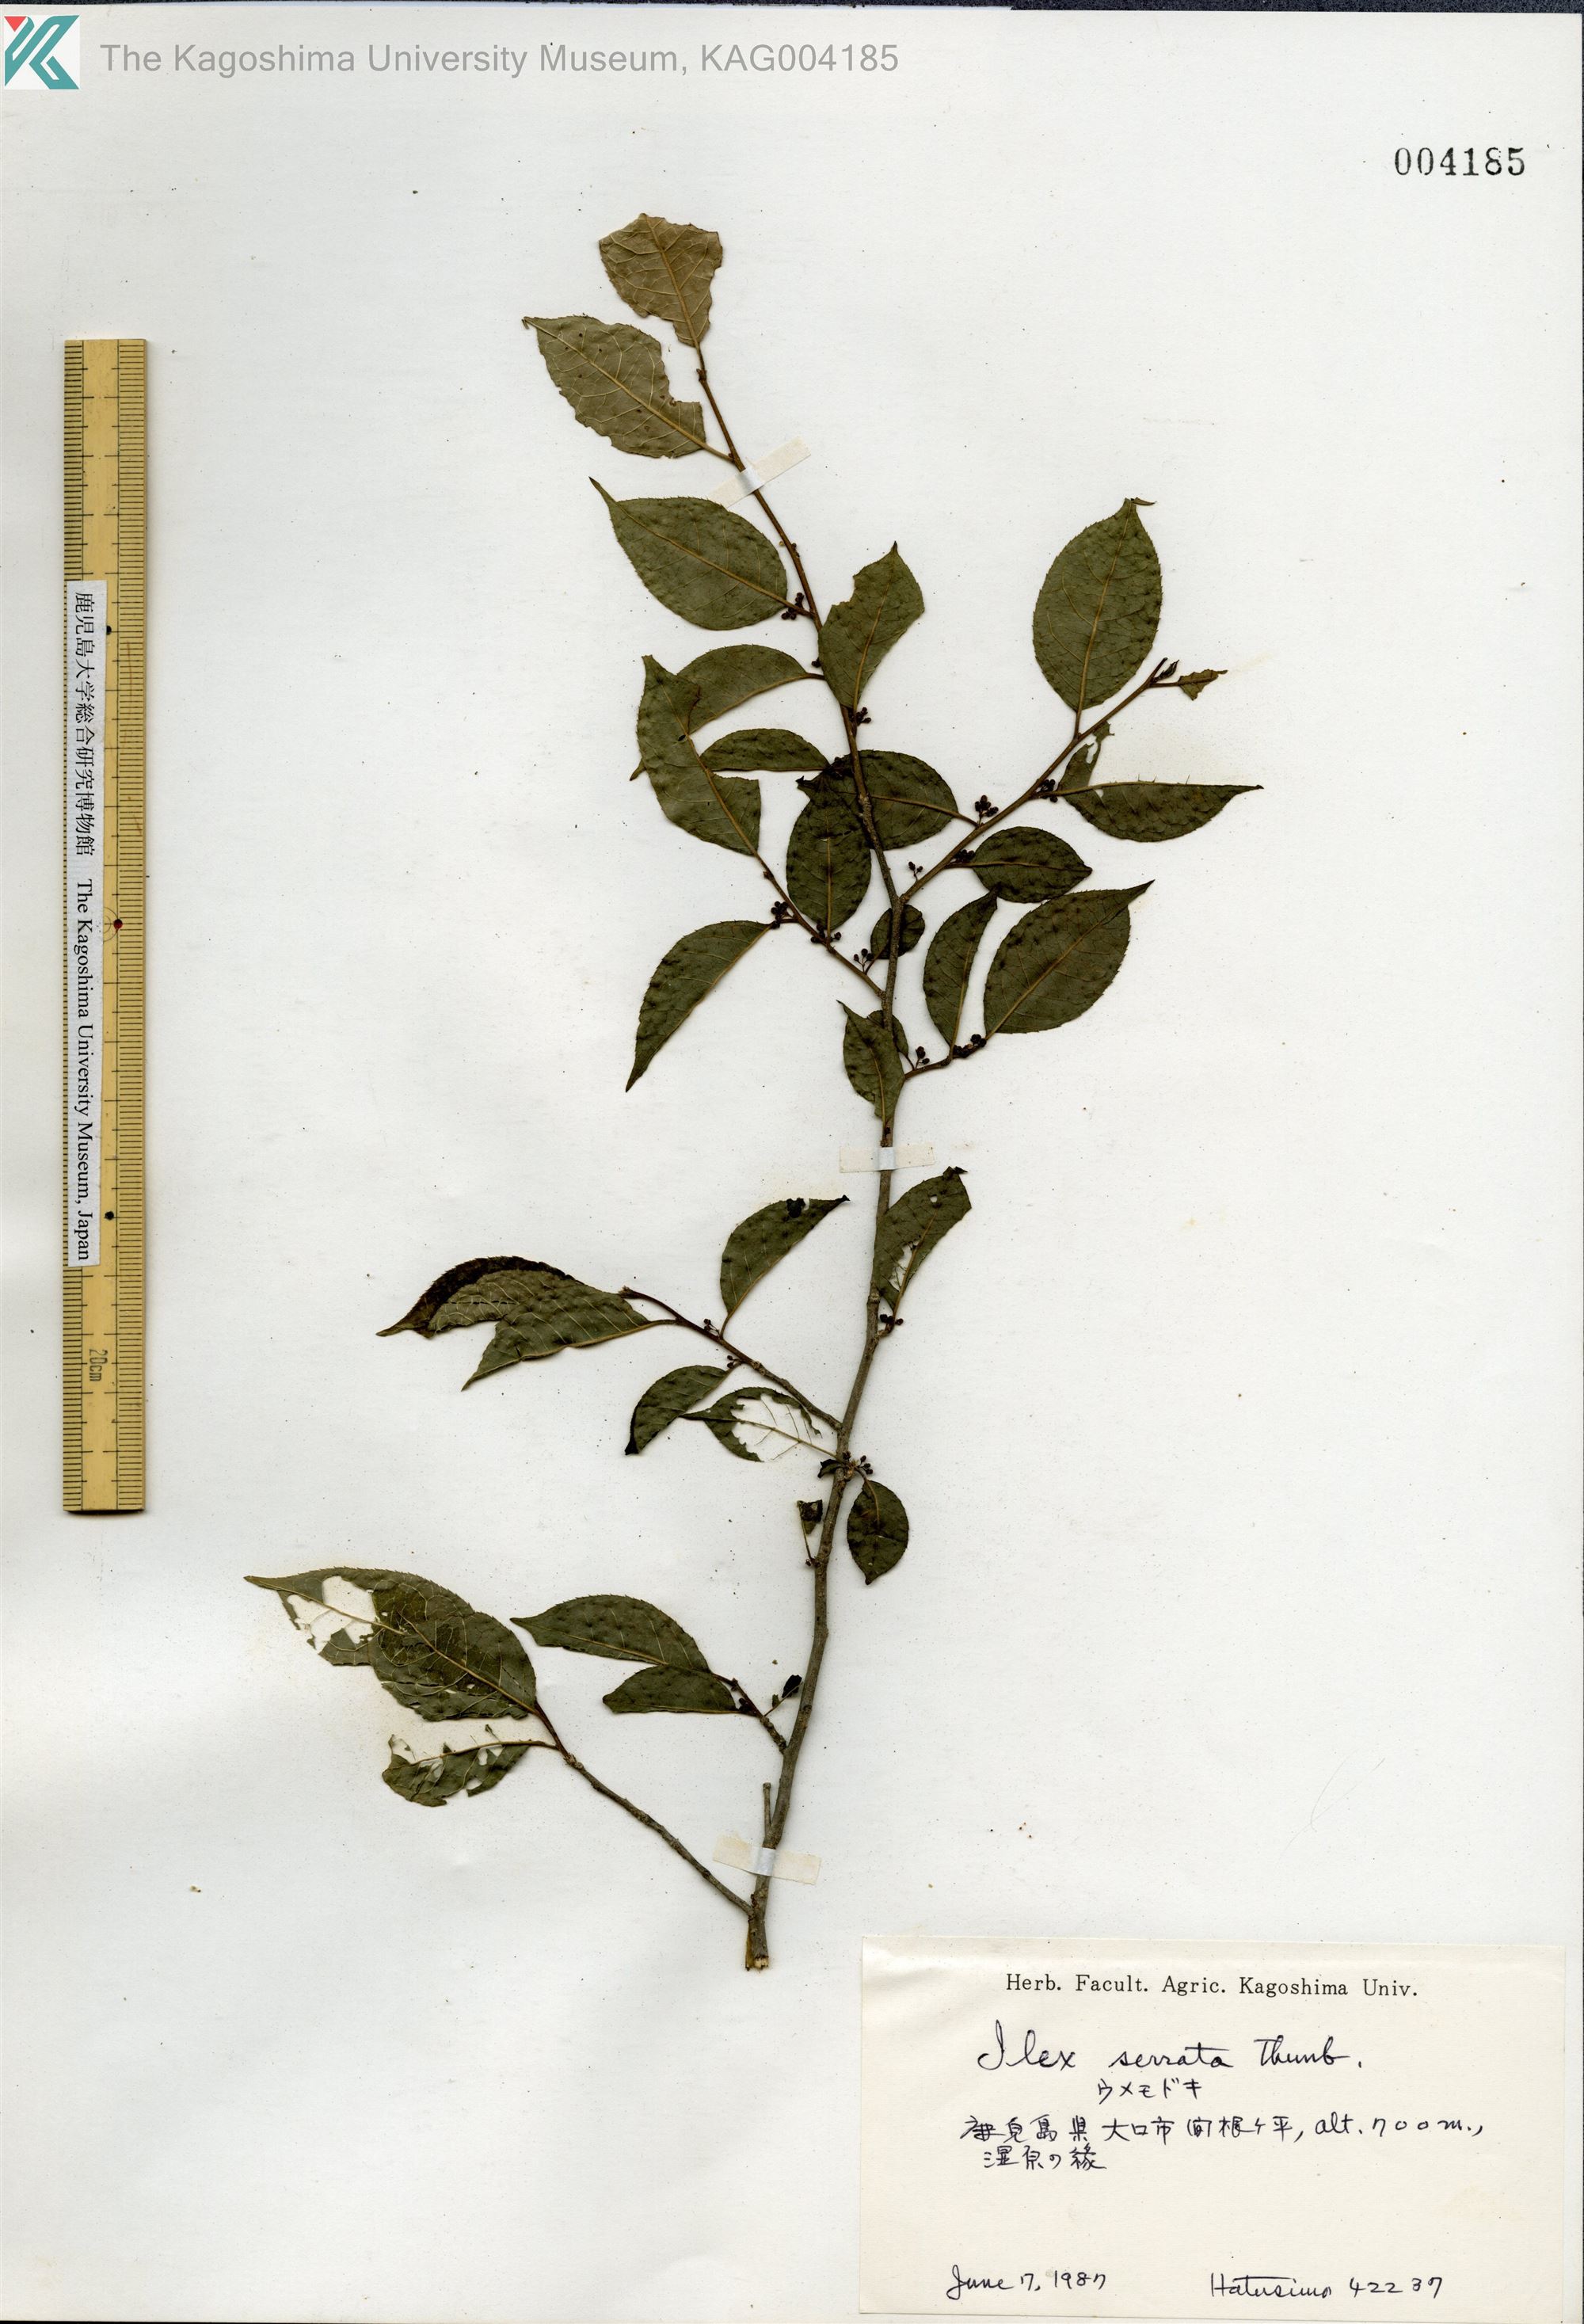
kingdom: Plantae
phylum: Tracheophyta
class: Magnoliopsida
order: Aquifoliales
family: Aquifoliaceae
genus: Ilex
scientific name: Ilex serrata
